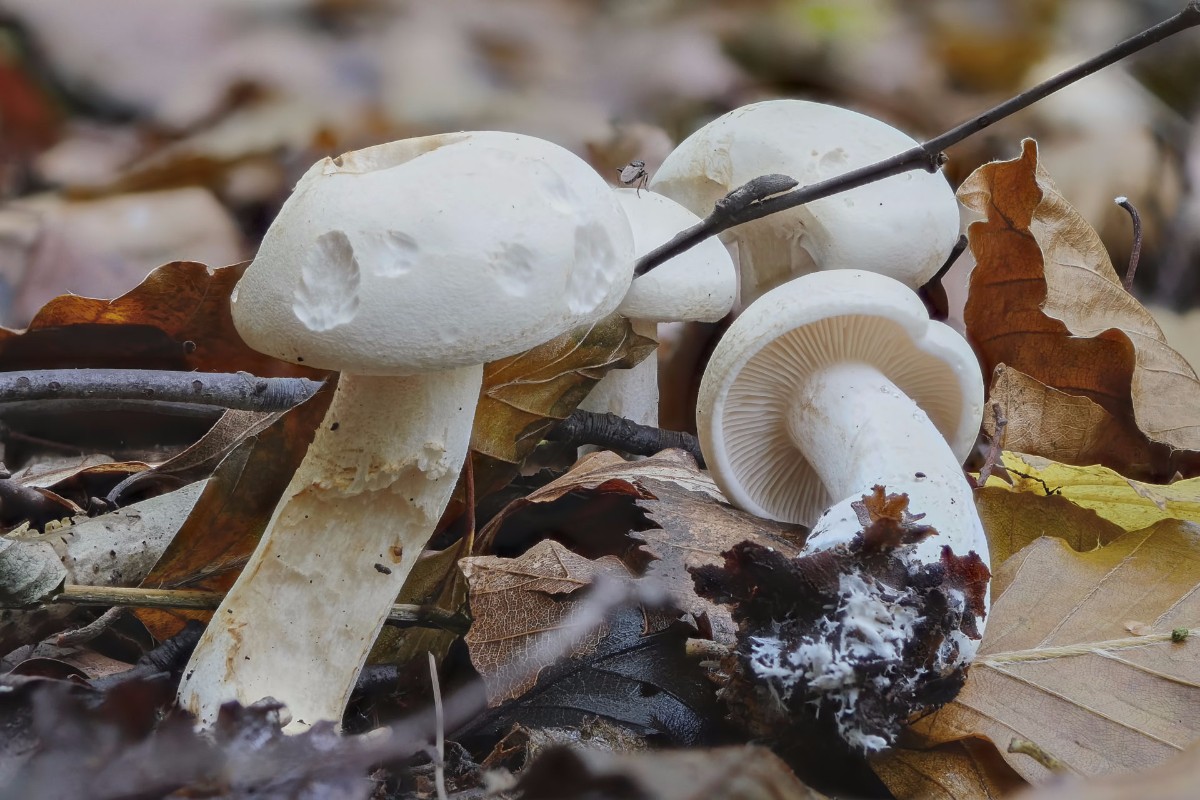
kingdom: Fungi
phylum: Basidiomycota
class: Agaricomycetes
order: Agaricales
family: Tricholomataceae
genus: Tricholoma
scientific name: Tricholoma stiparophyllum
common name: hvid ridderhat
